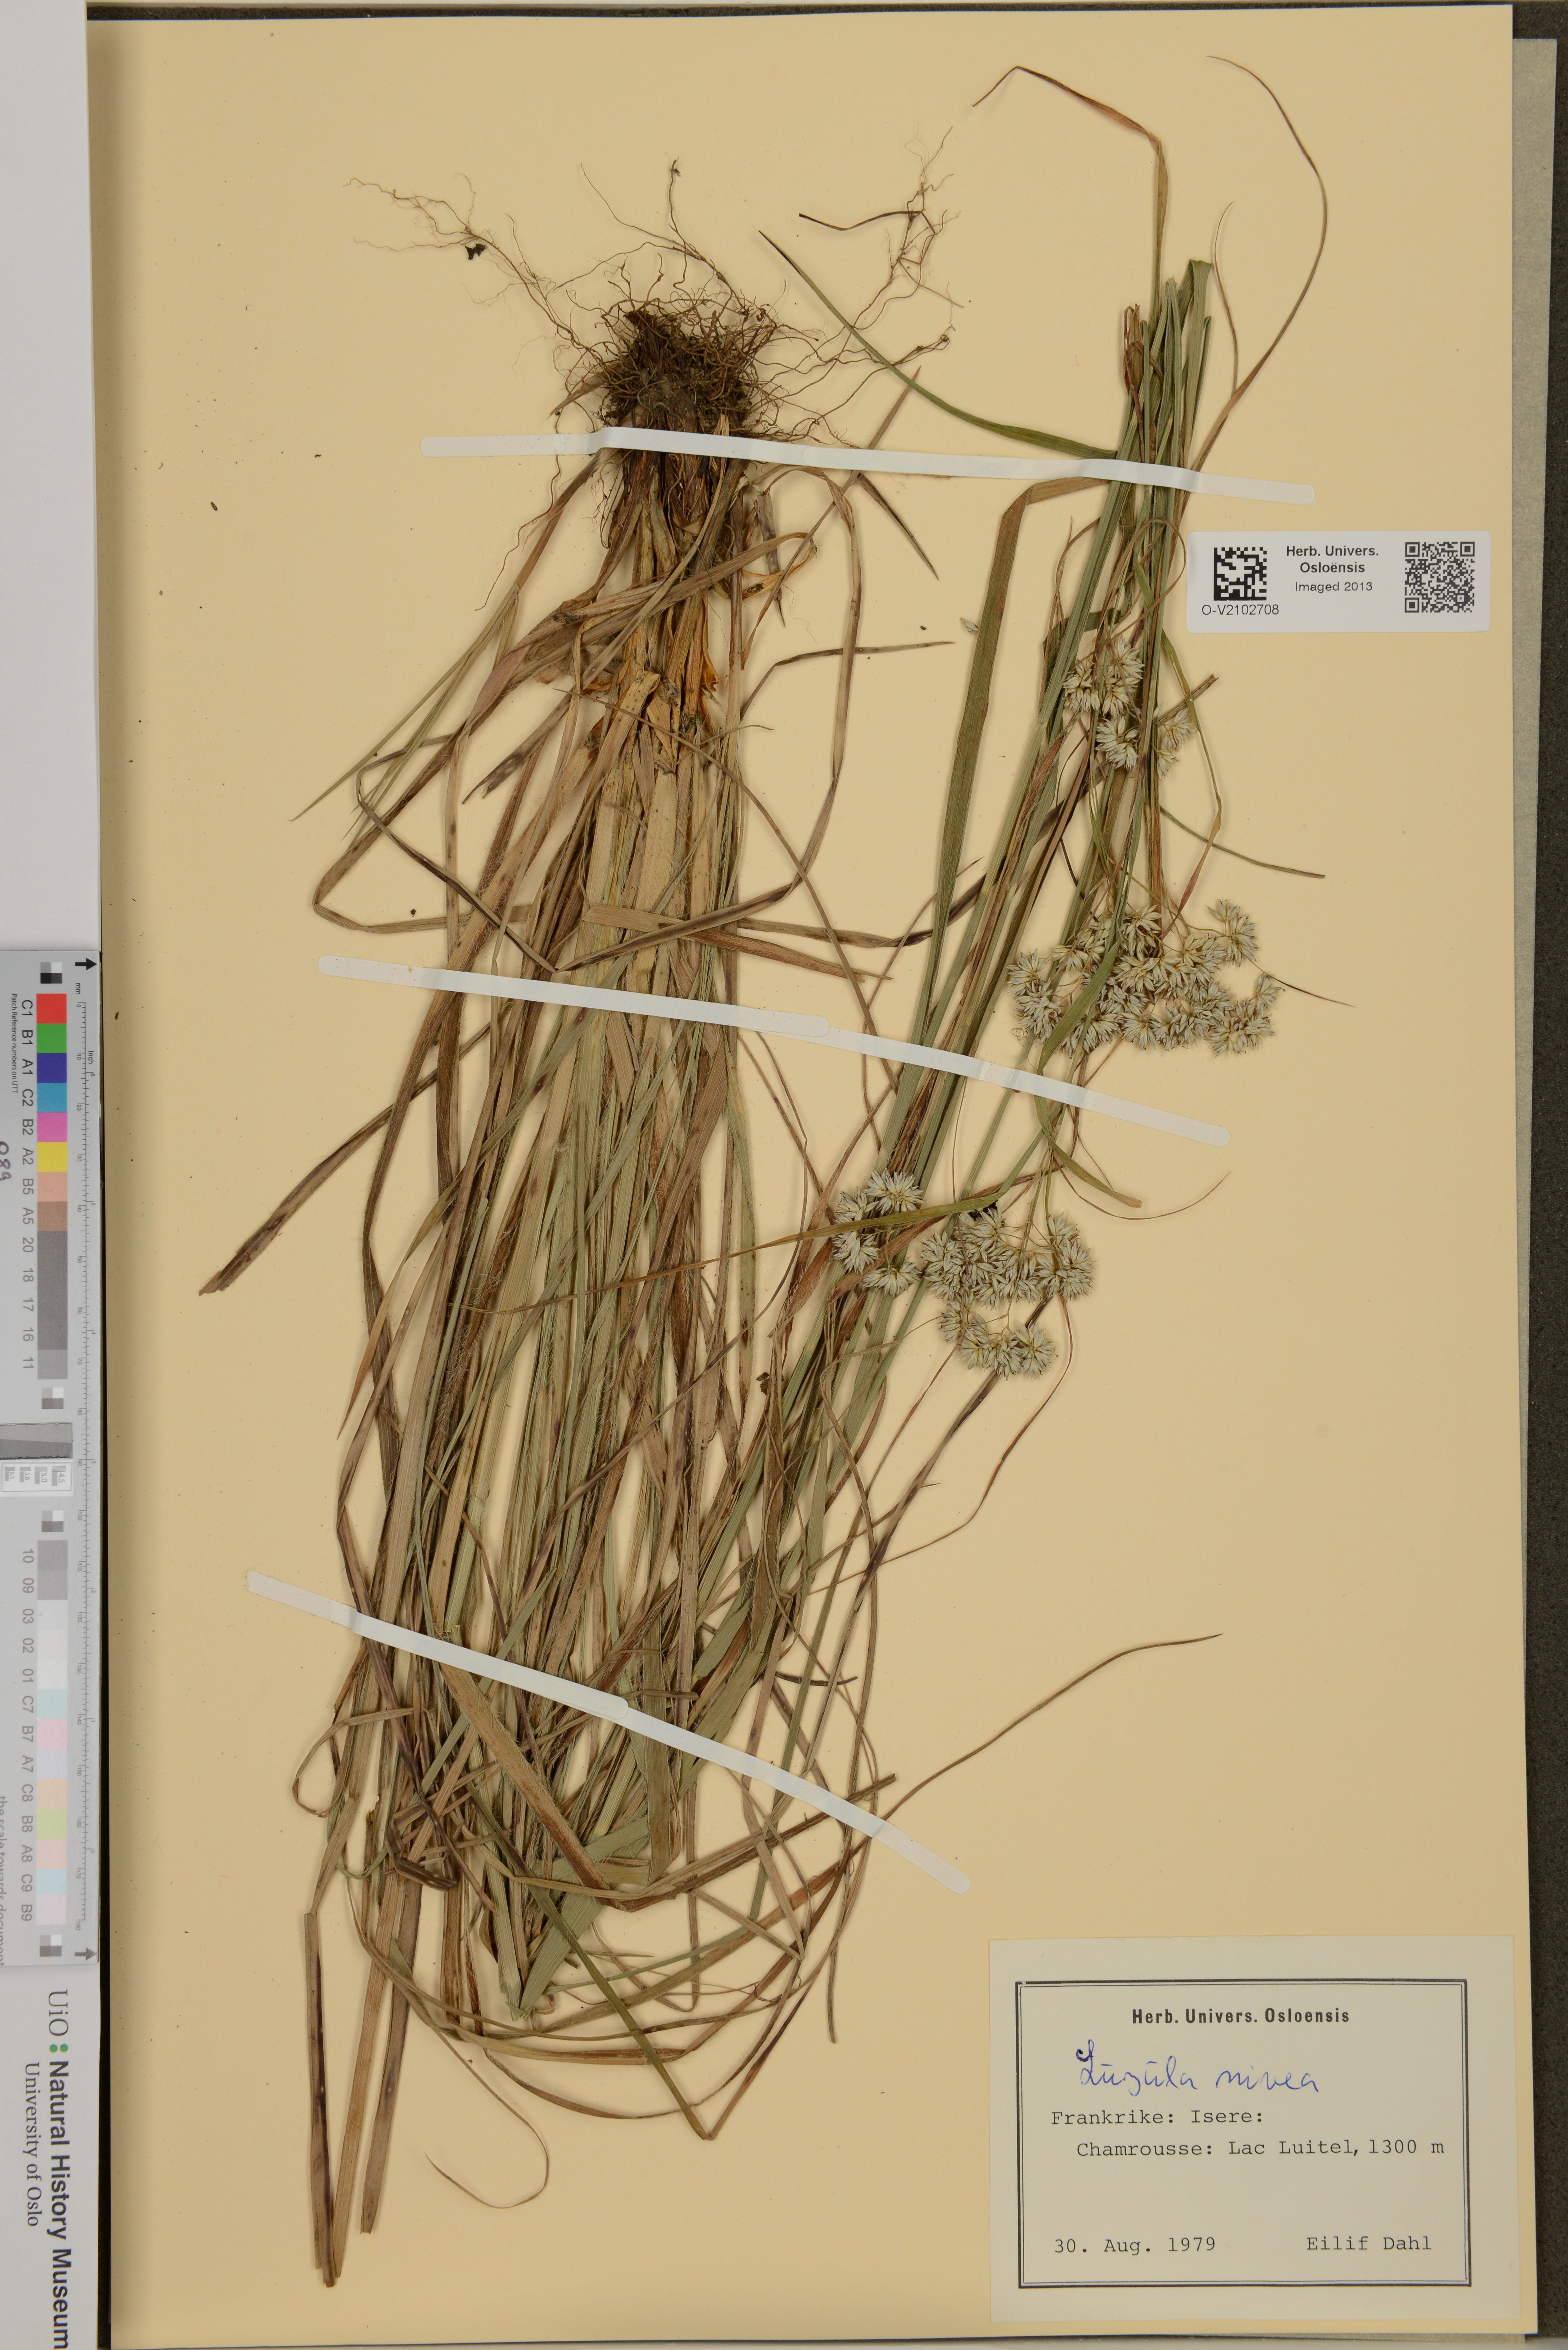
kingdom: Plantae
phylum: Tracheophyta
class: Liliopsida
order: Poales
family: Juncaceae
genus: Luzula
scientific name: Luzula nivea
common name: Snow-white wood-rush
